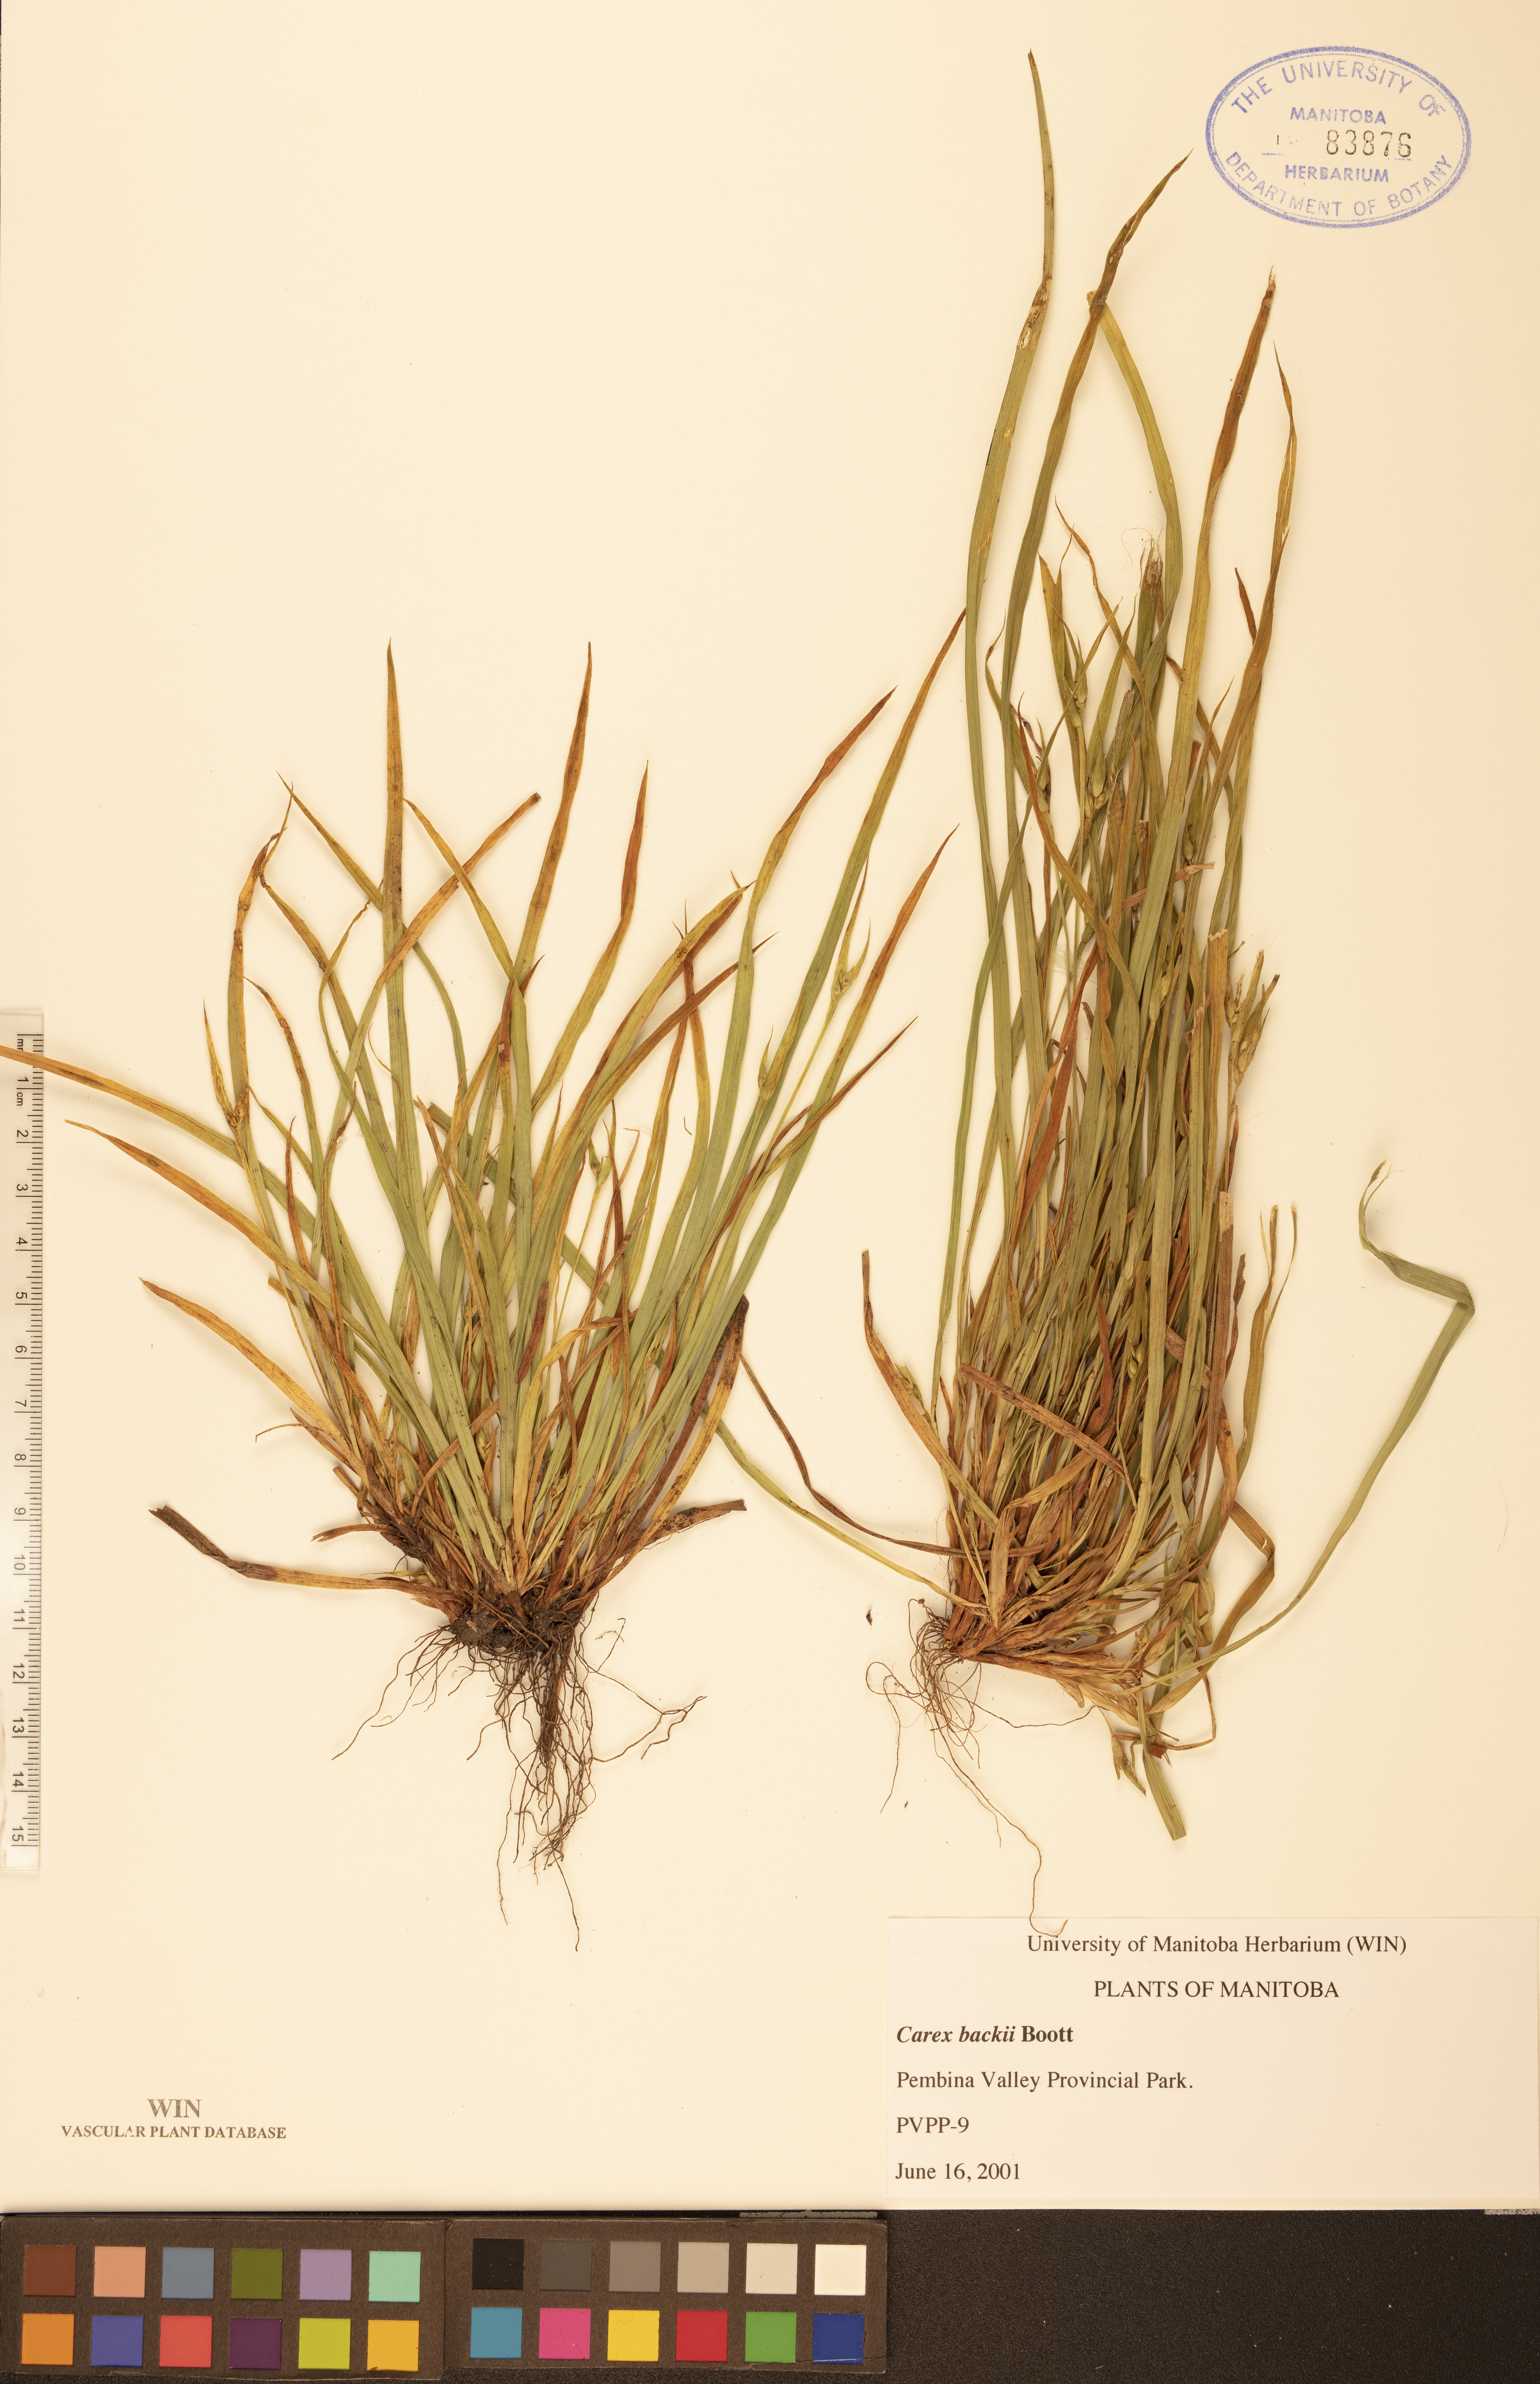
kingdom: Plantae
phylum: Tracheophyta
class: Liliopsida
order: Poales
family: Cyperaceae
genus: Carex
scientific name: Carex backii
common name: Back's sedge
